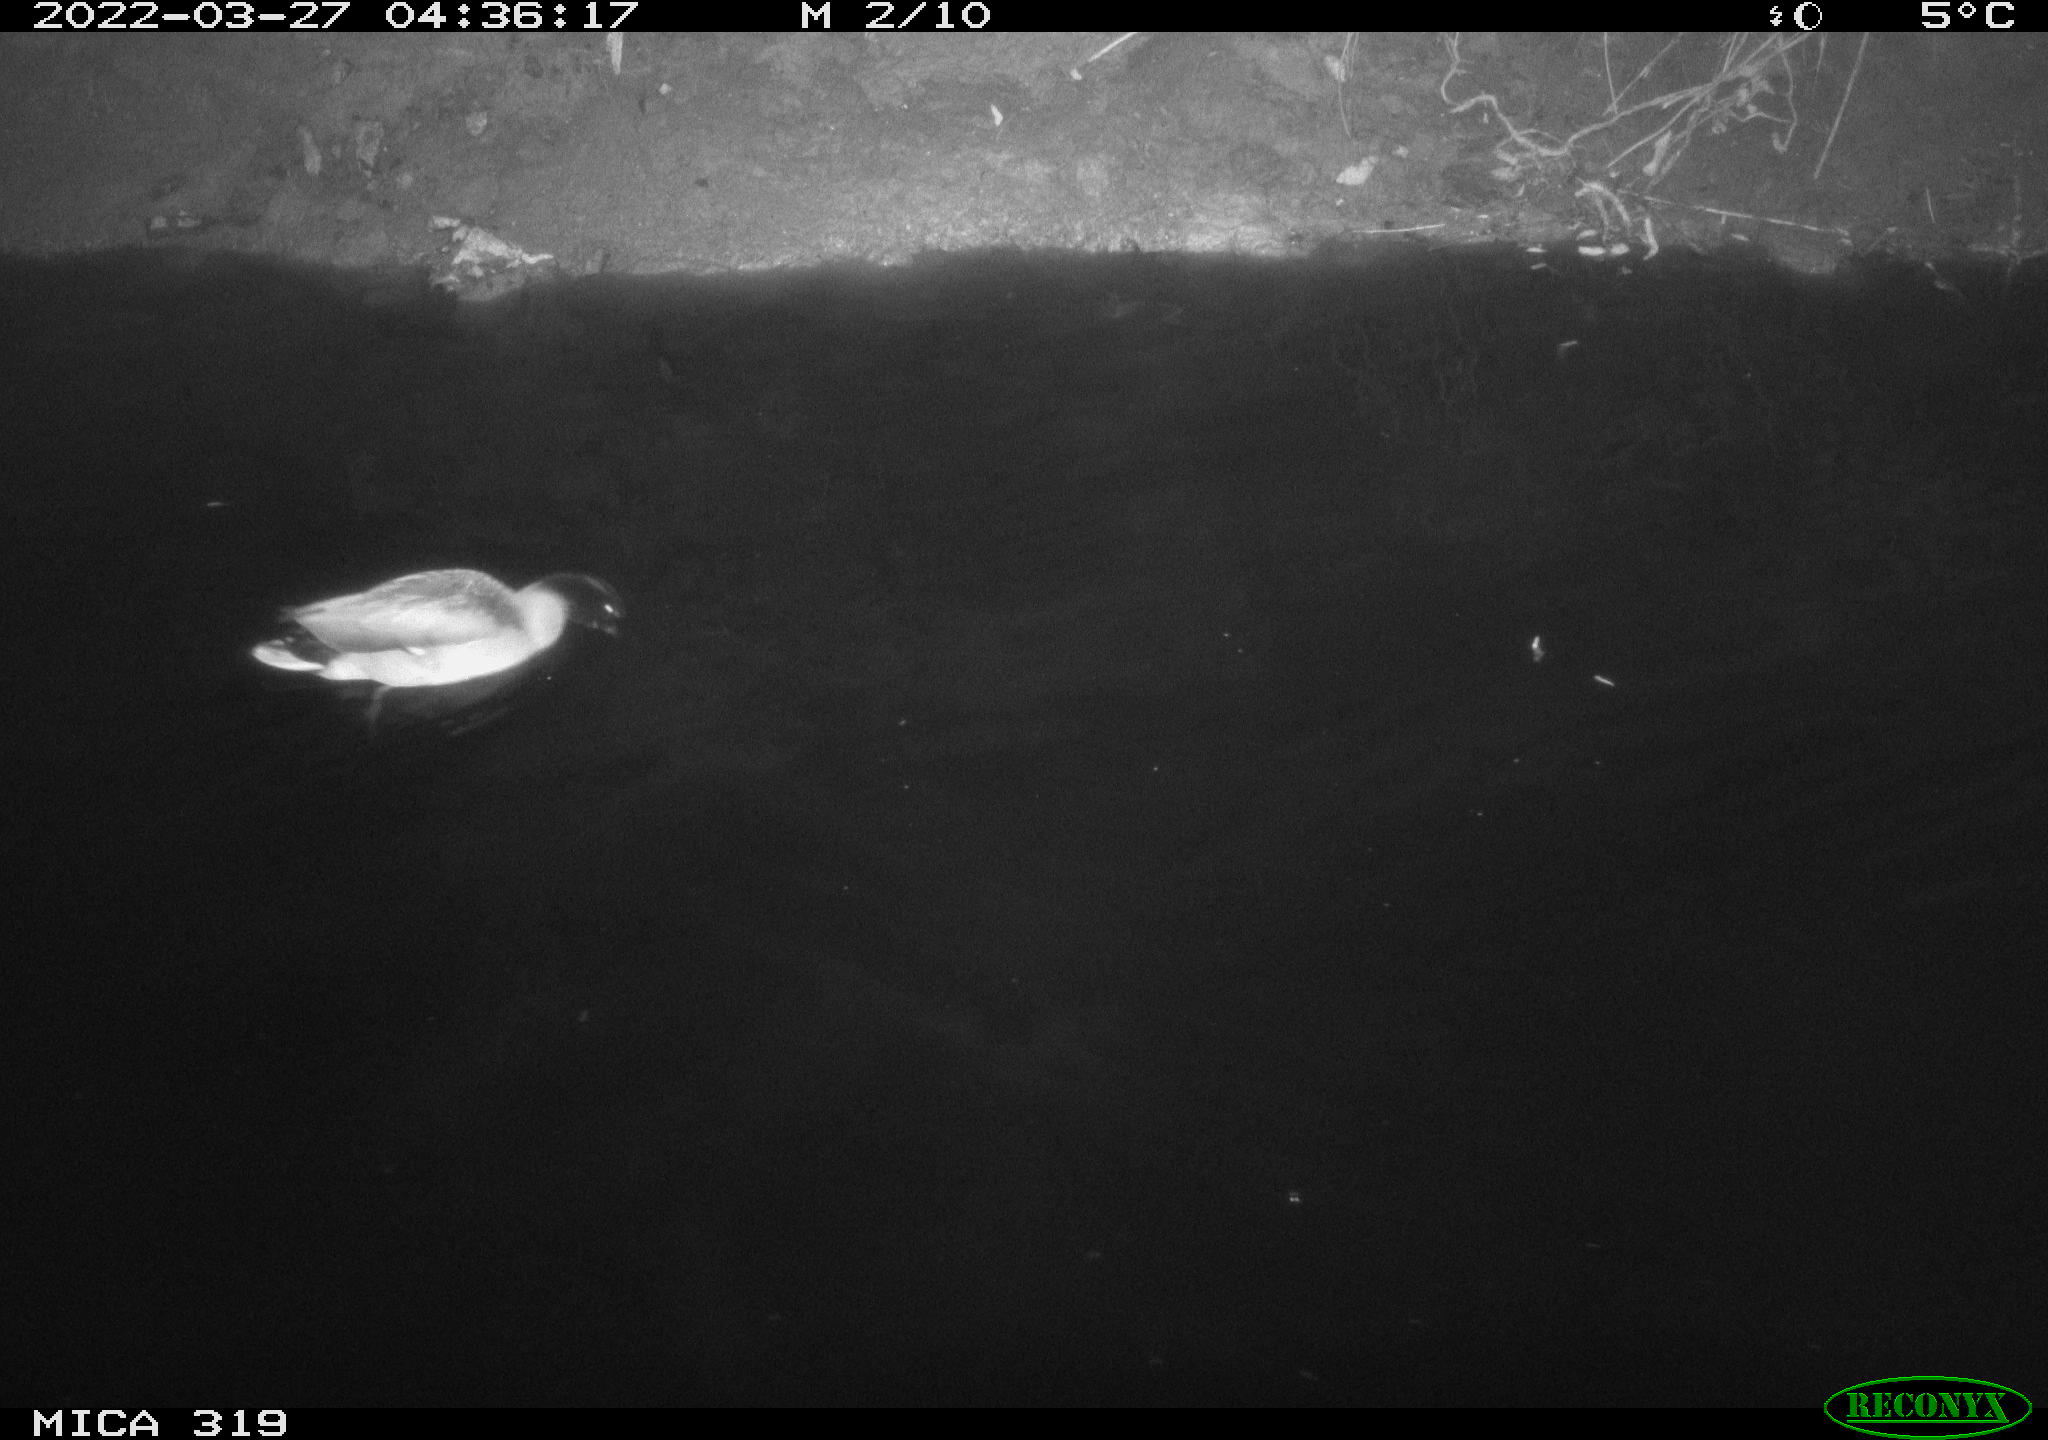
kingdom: Animalia
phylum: Chordata
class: Aves
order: Anseriformes
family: Anatidae
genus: Anas
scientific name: Anas platyrhynchos
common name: Mallard
